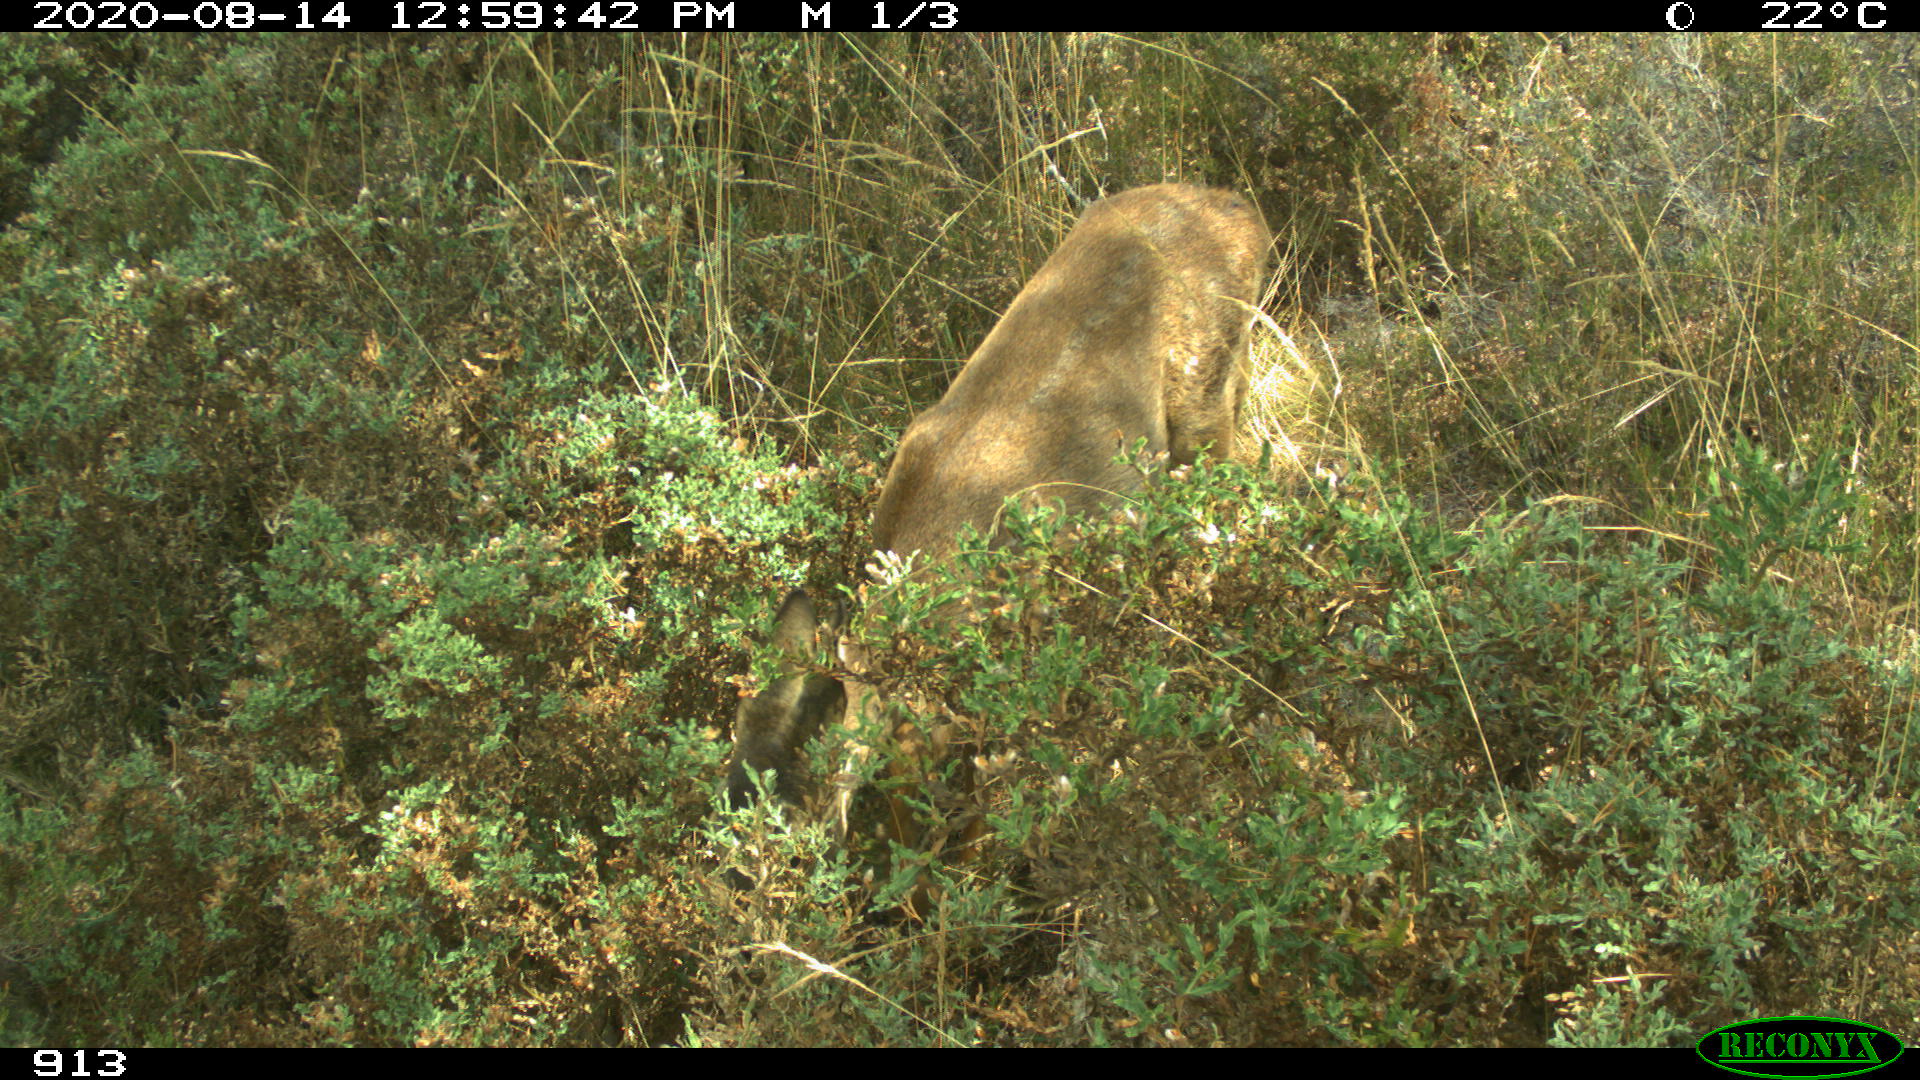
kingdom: Animalia
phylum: Chordata
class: Mammalia
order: Artiodactyla
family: Cervidae
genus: Capreolus
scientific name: Capreolus capreolus
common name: Western roe deer
